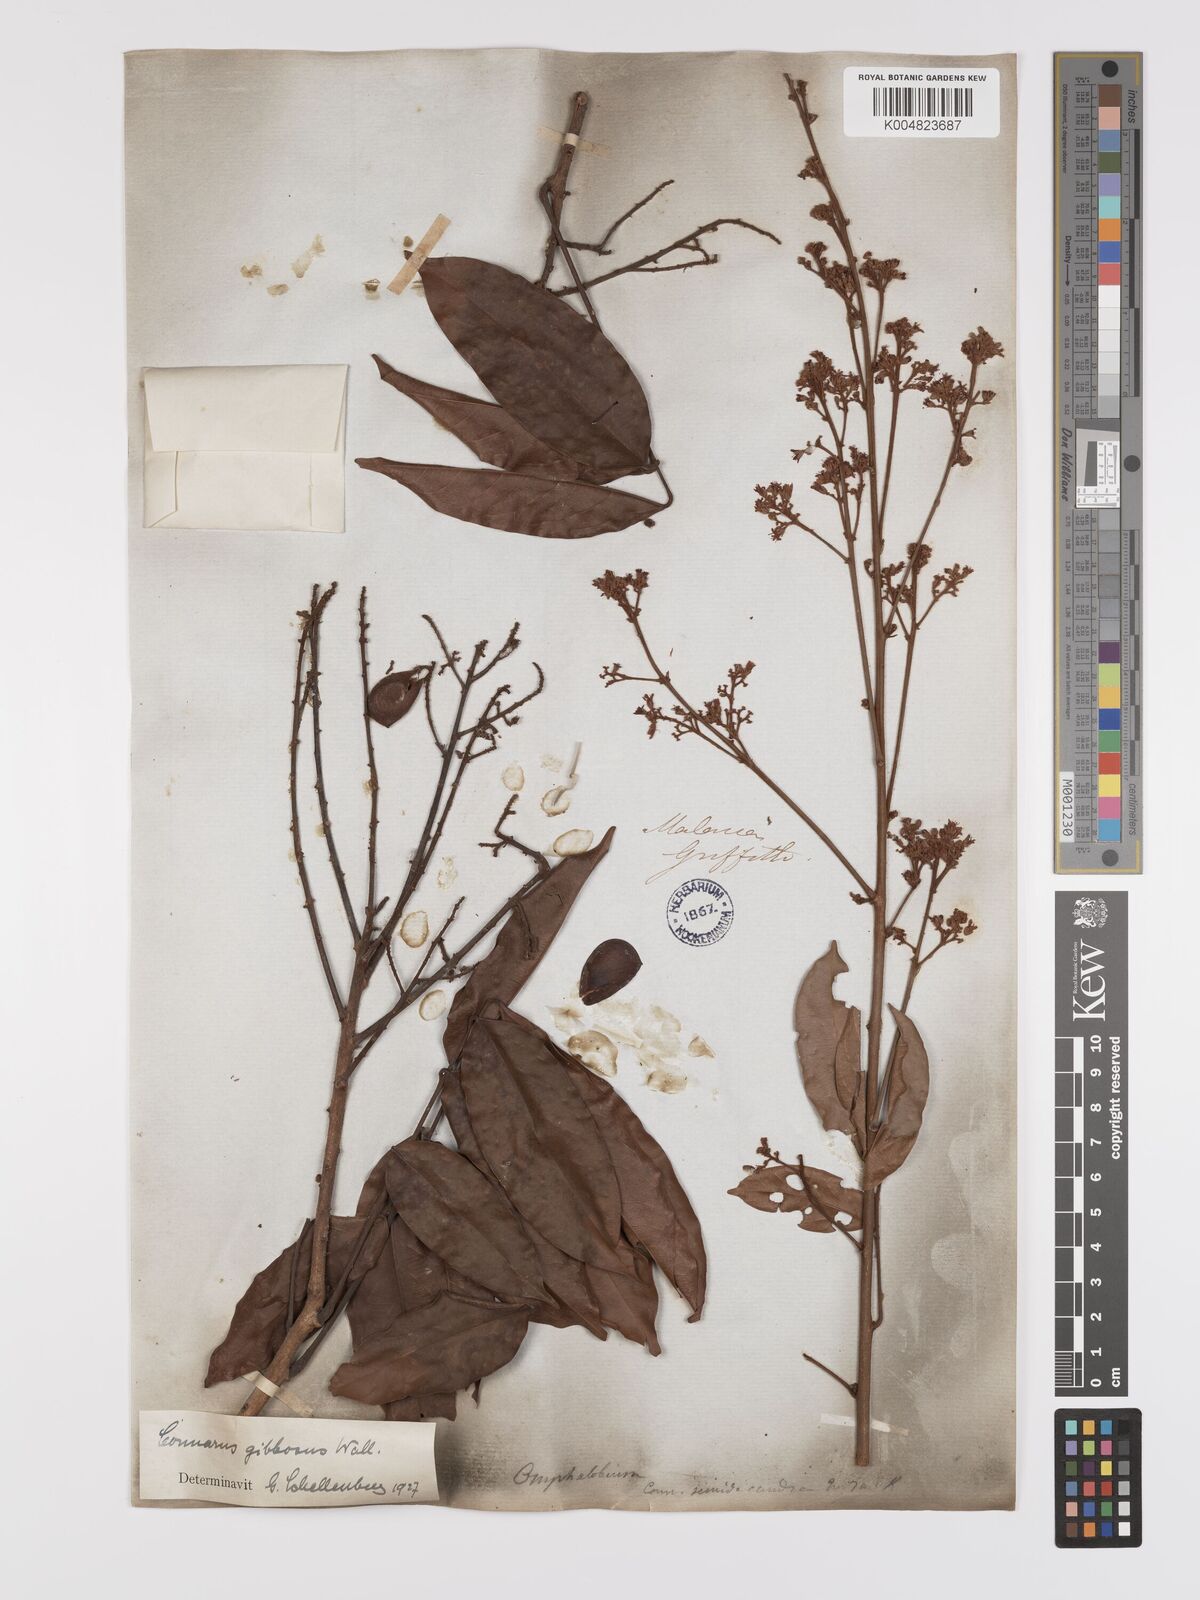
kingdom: Plantae
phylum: Tracheophyta
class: Magnoliopsida
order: Oxalidales
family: Connaraceae
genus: Connarus
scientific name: Connarus semidecandrus
